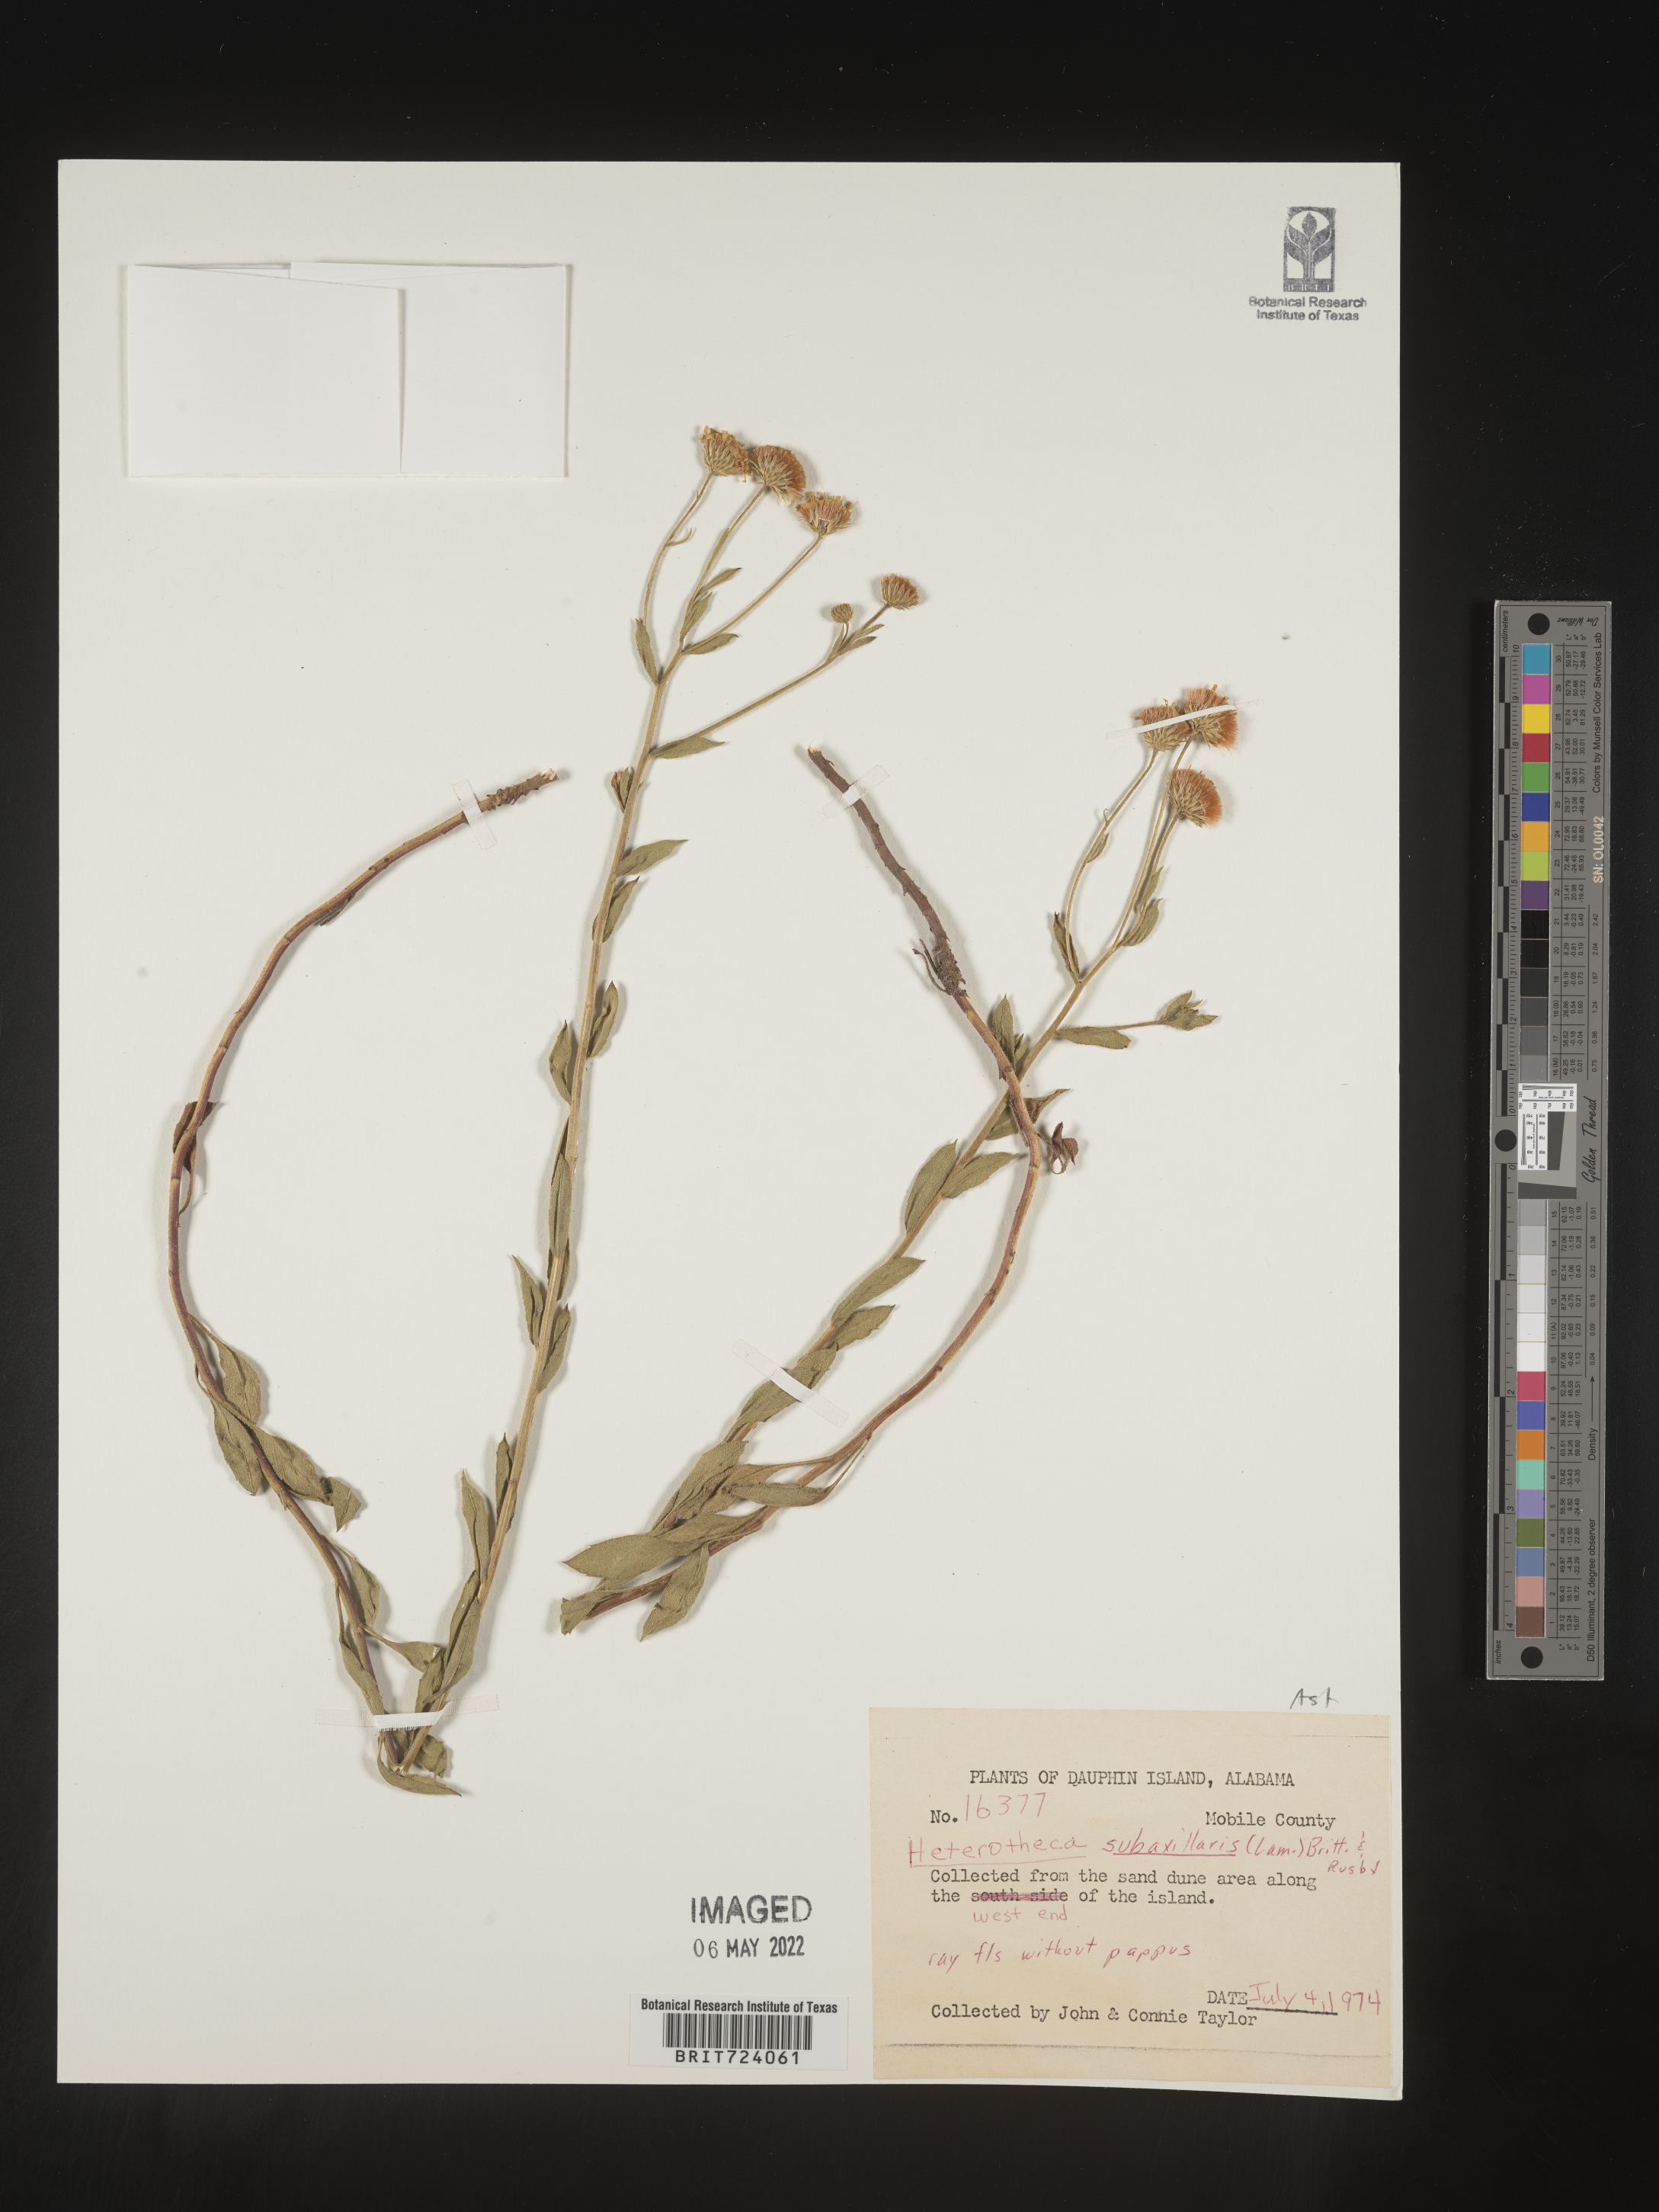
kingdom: Plantae
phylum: Tracheophyta
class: Magnoliopsida
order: Asterales
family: Asteraceae
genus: Heterotheca
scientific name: Heterotheca subaxillaris
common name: Camphorweed
